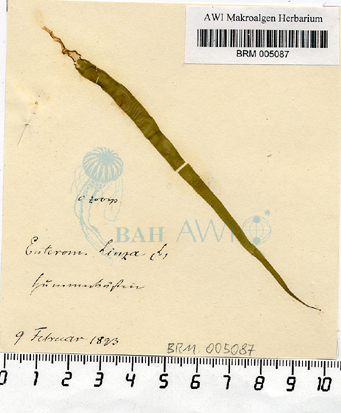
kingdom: Plantae
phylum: Chlorophyta
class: Ulvophyceae
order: Ulvales
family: Ulvaceae
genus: Ulva
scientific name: Ulva linza
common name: Green string lettuce
